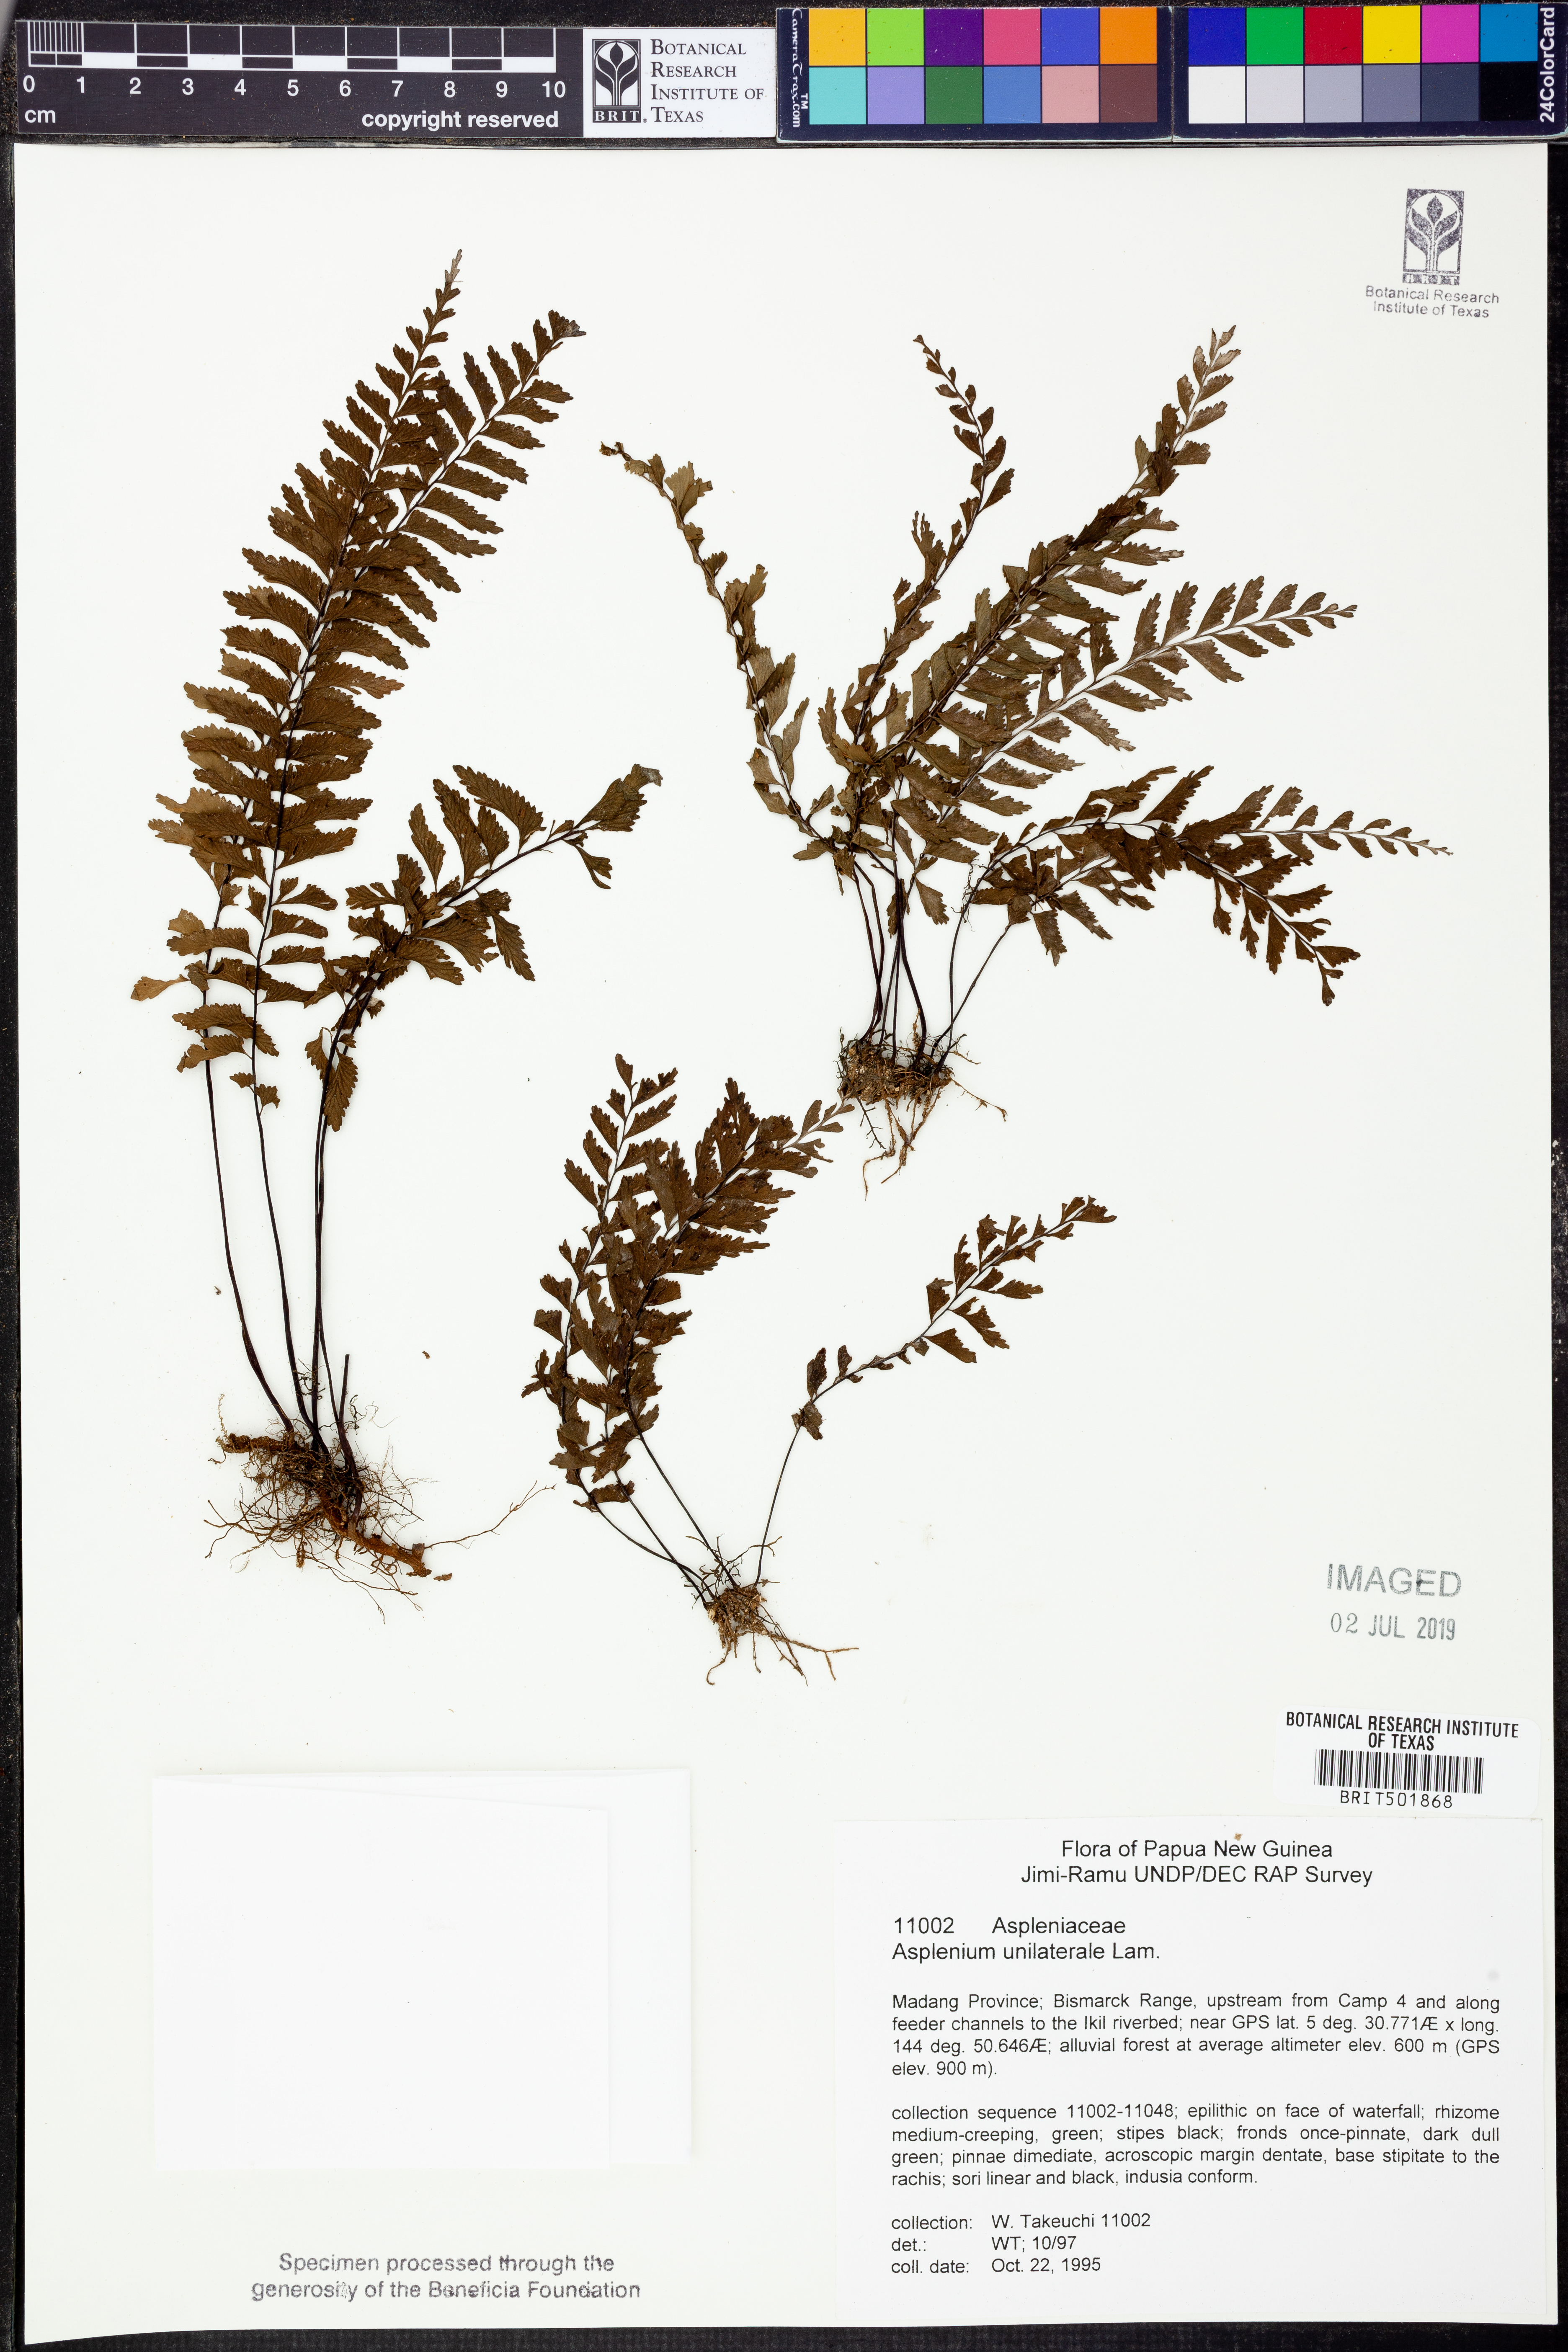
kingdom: Plantae
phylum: Tracheophyta
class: Polypodiopsida
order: Polypodiales
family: Aspleniaceae
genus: Hymenasplenium
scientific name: Hymenasplenium unilaterale
